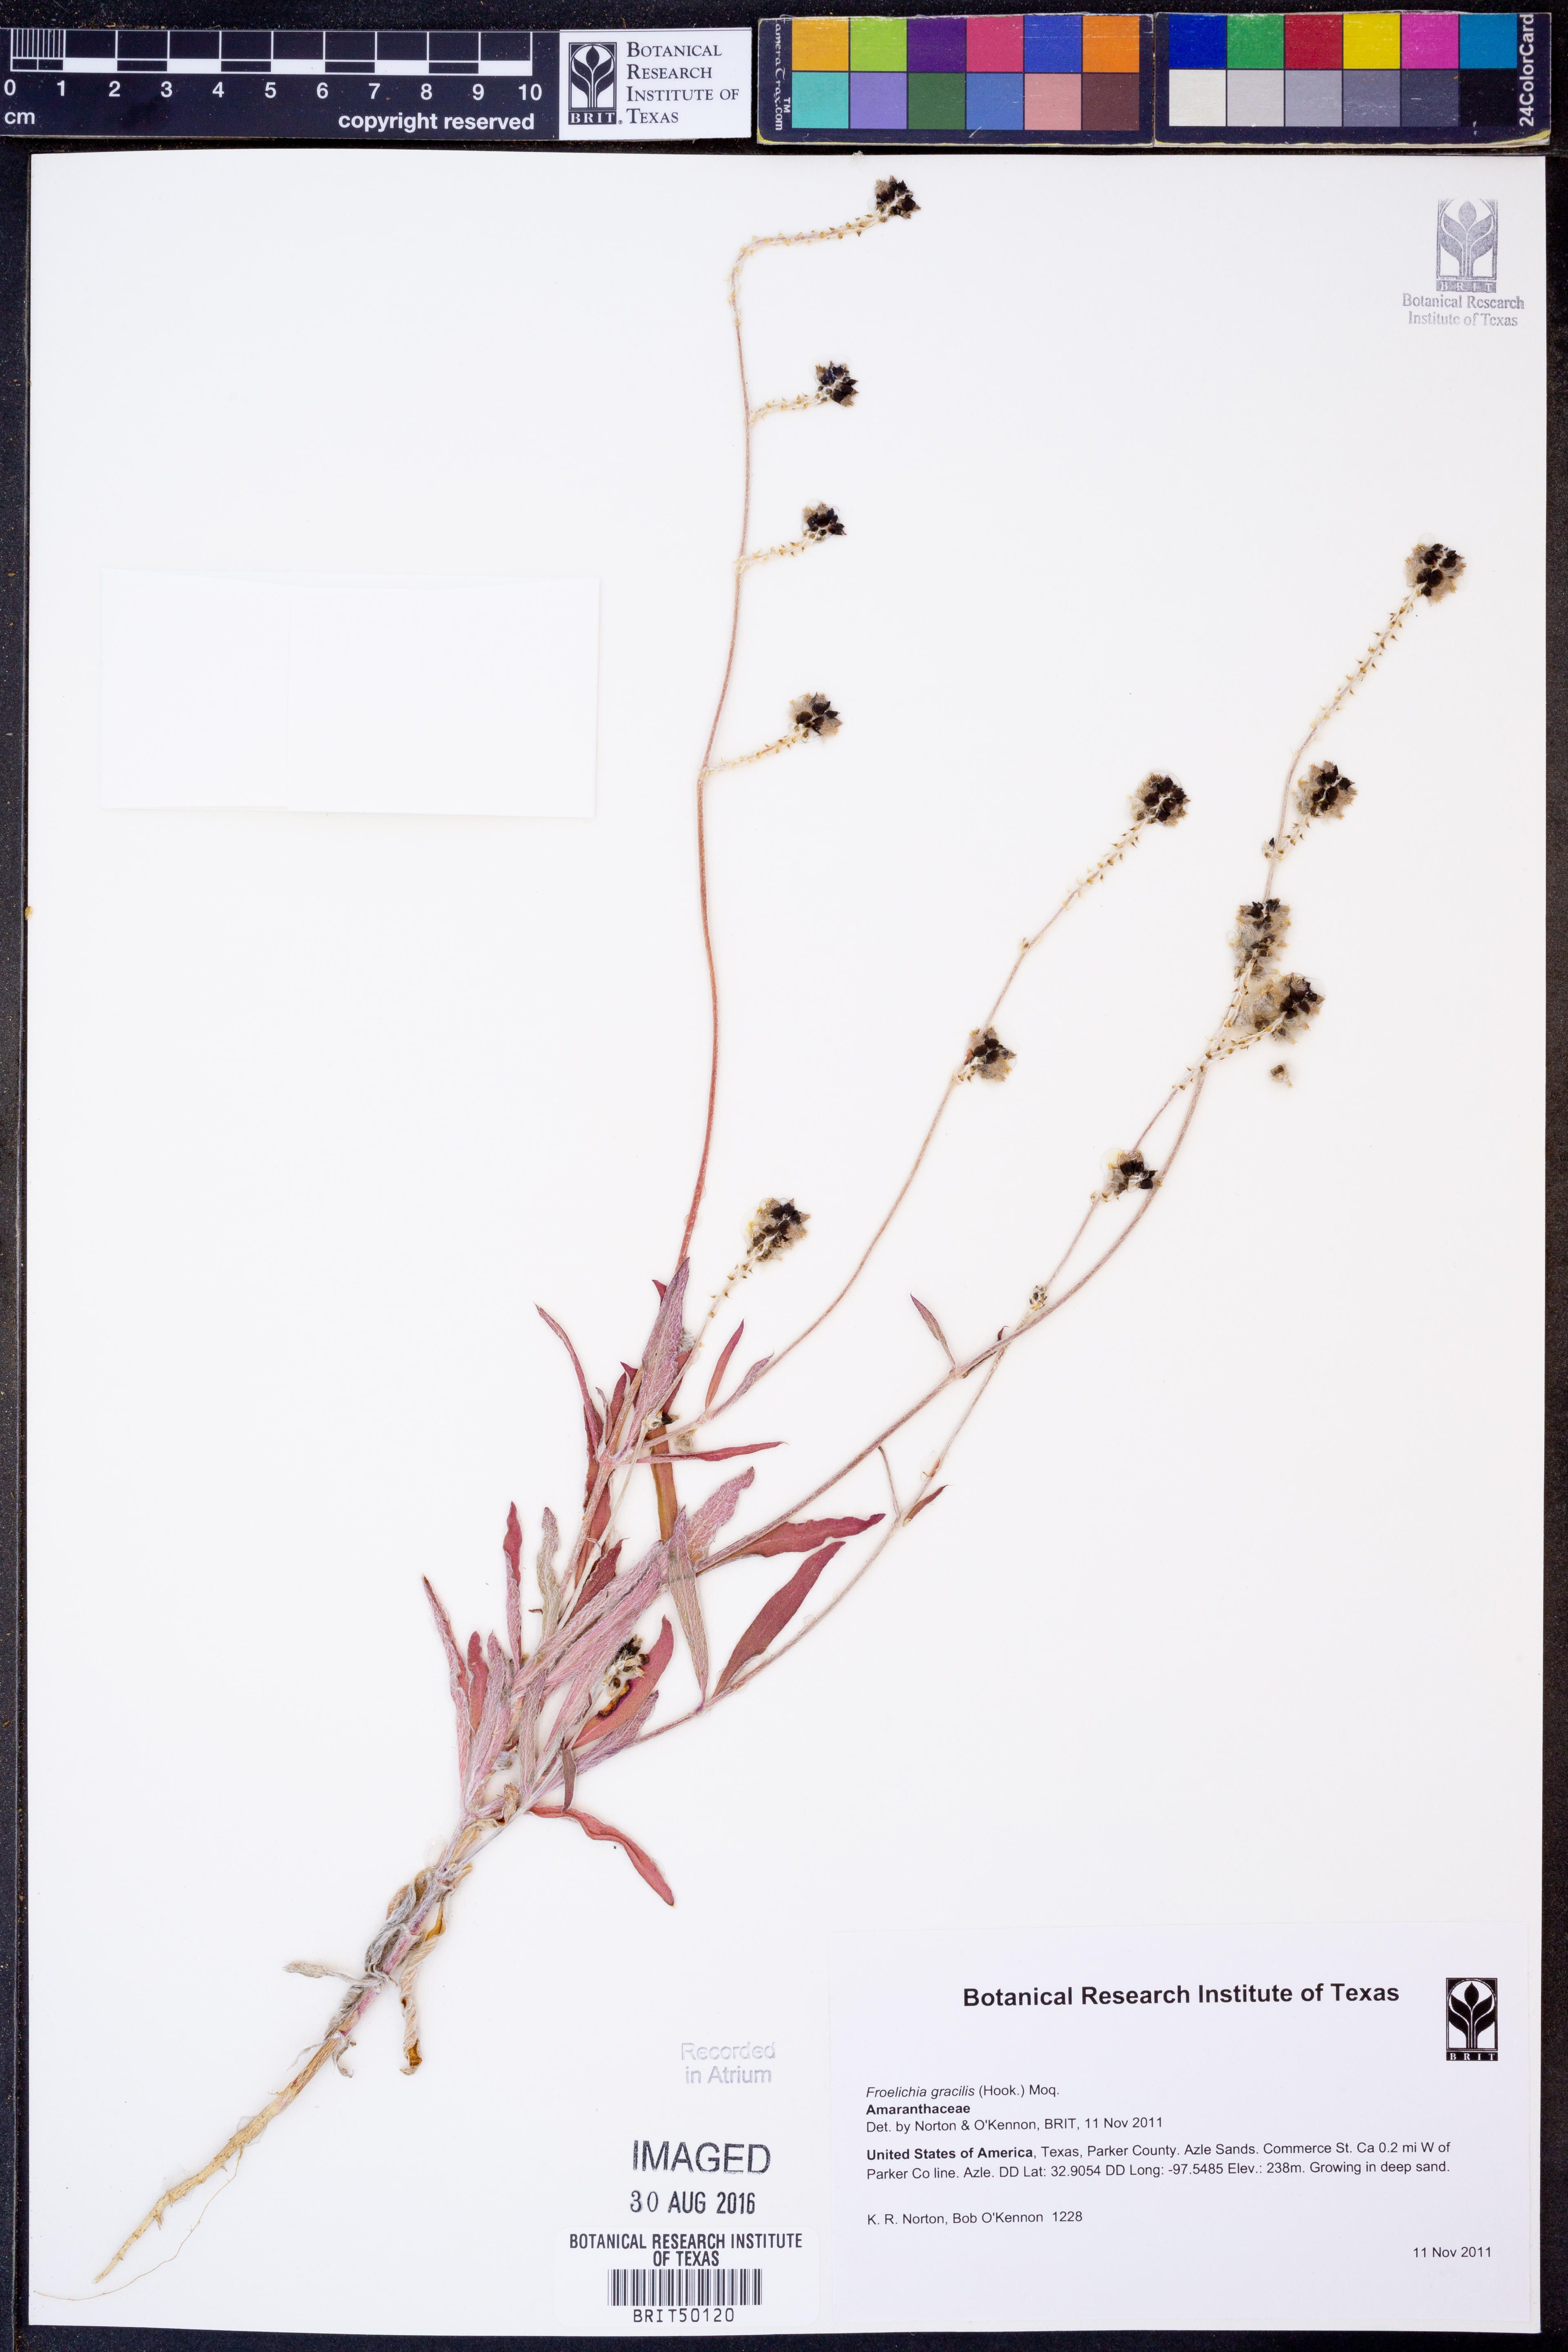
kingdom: Plantae
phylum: Tracheophyta
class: Magnoliopsida
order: Caryophyllales
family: Amaranthaceae
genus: Froelichia
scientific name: Froelichia gracilis
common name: Slender cottonweed
